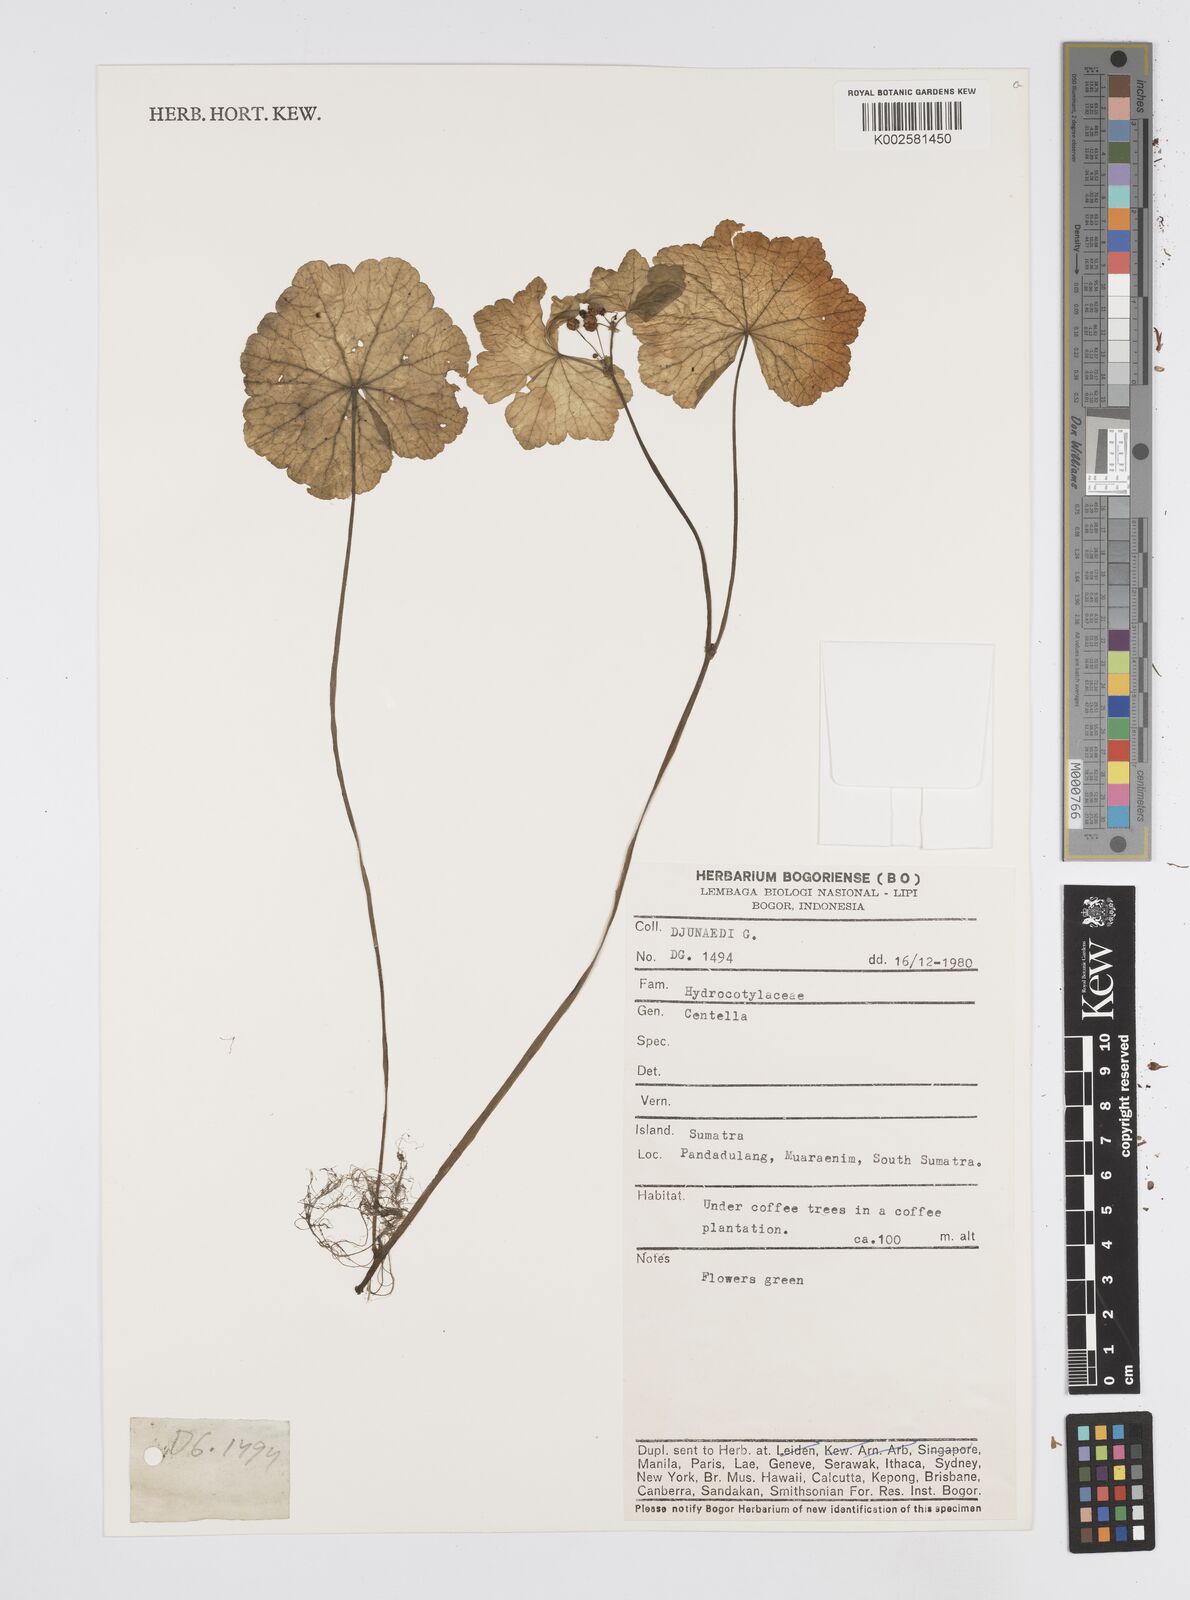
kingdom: Plantae
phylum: Tracheophyta
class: Magnoliopsida
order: Apiales
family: Apiaceae
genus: Centella
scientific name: Centella asiatica
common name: Spadeleaf
